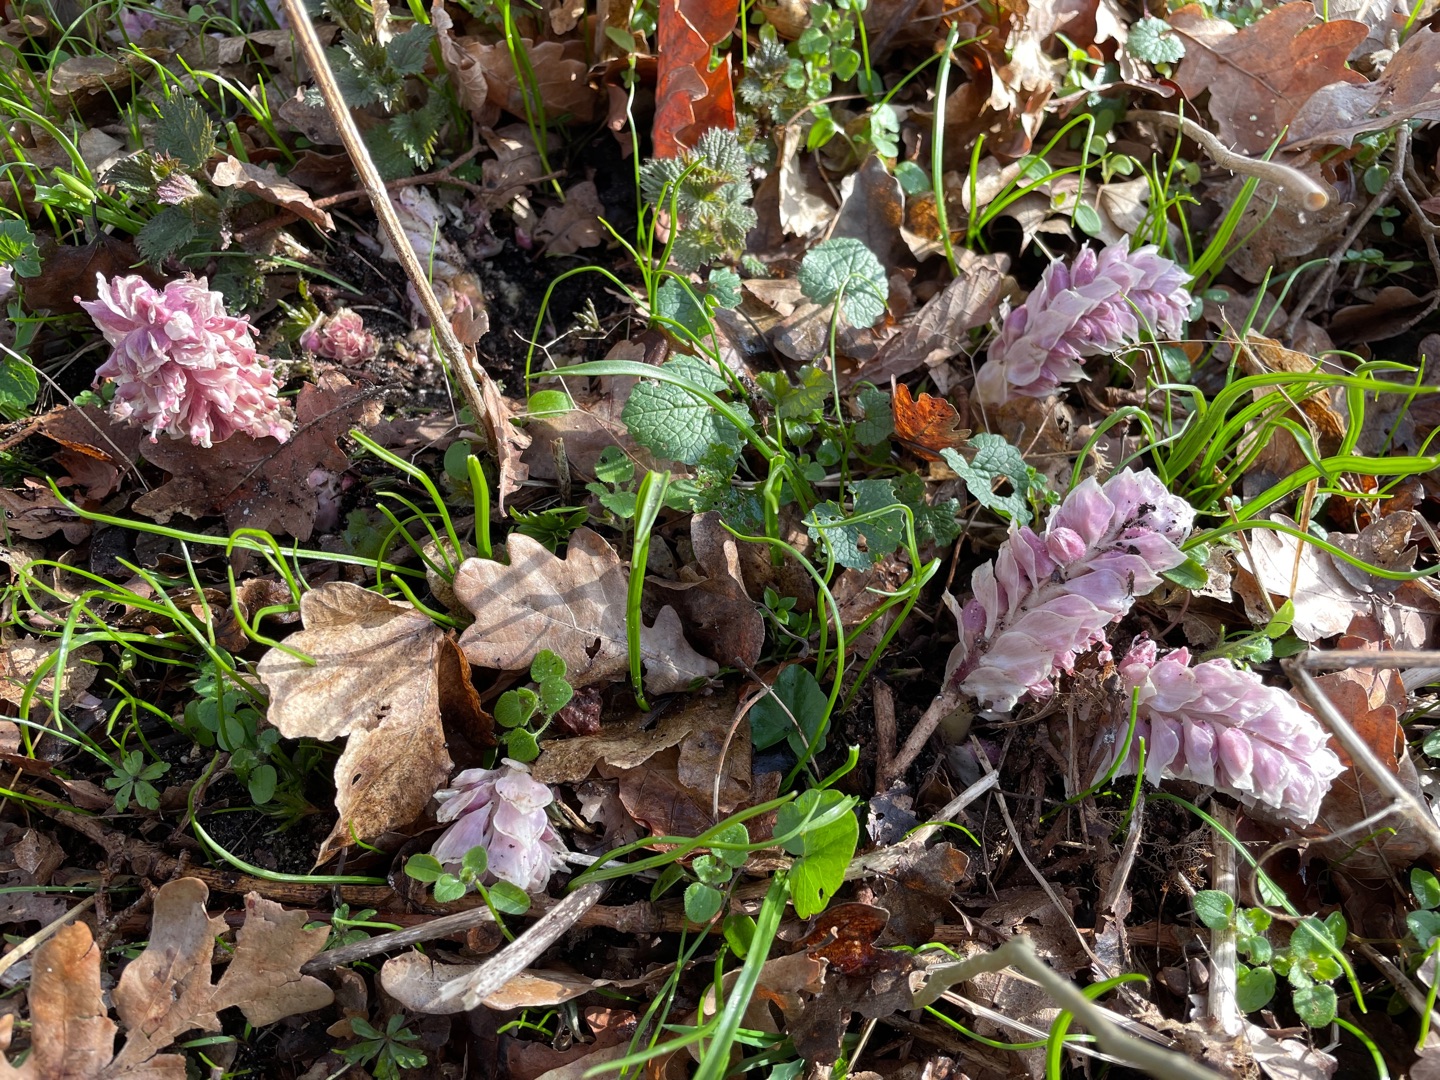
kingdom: Plantae
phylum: Tracheophyta
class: Magnoliopsida
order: Lamiales
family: Orobanchaceae
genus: Lathraea
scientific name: Lathraea squamaria
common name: Skælrod
